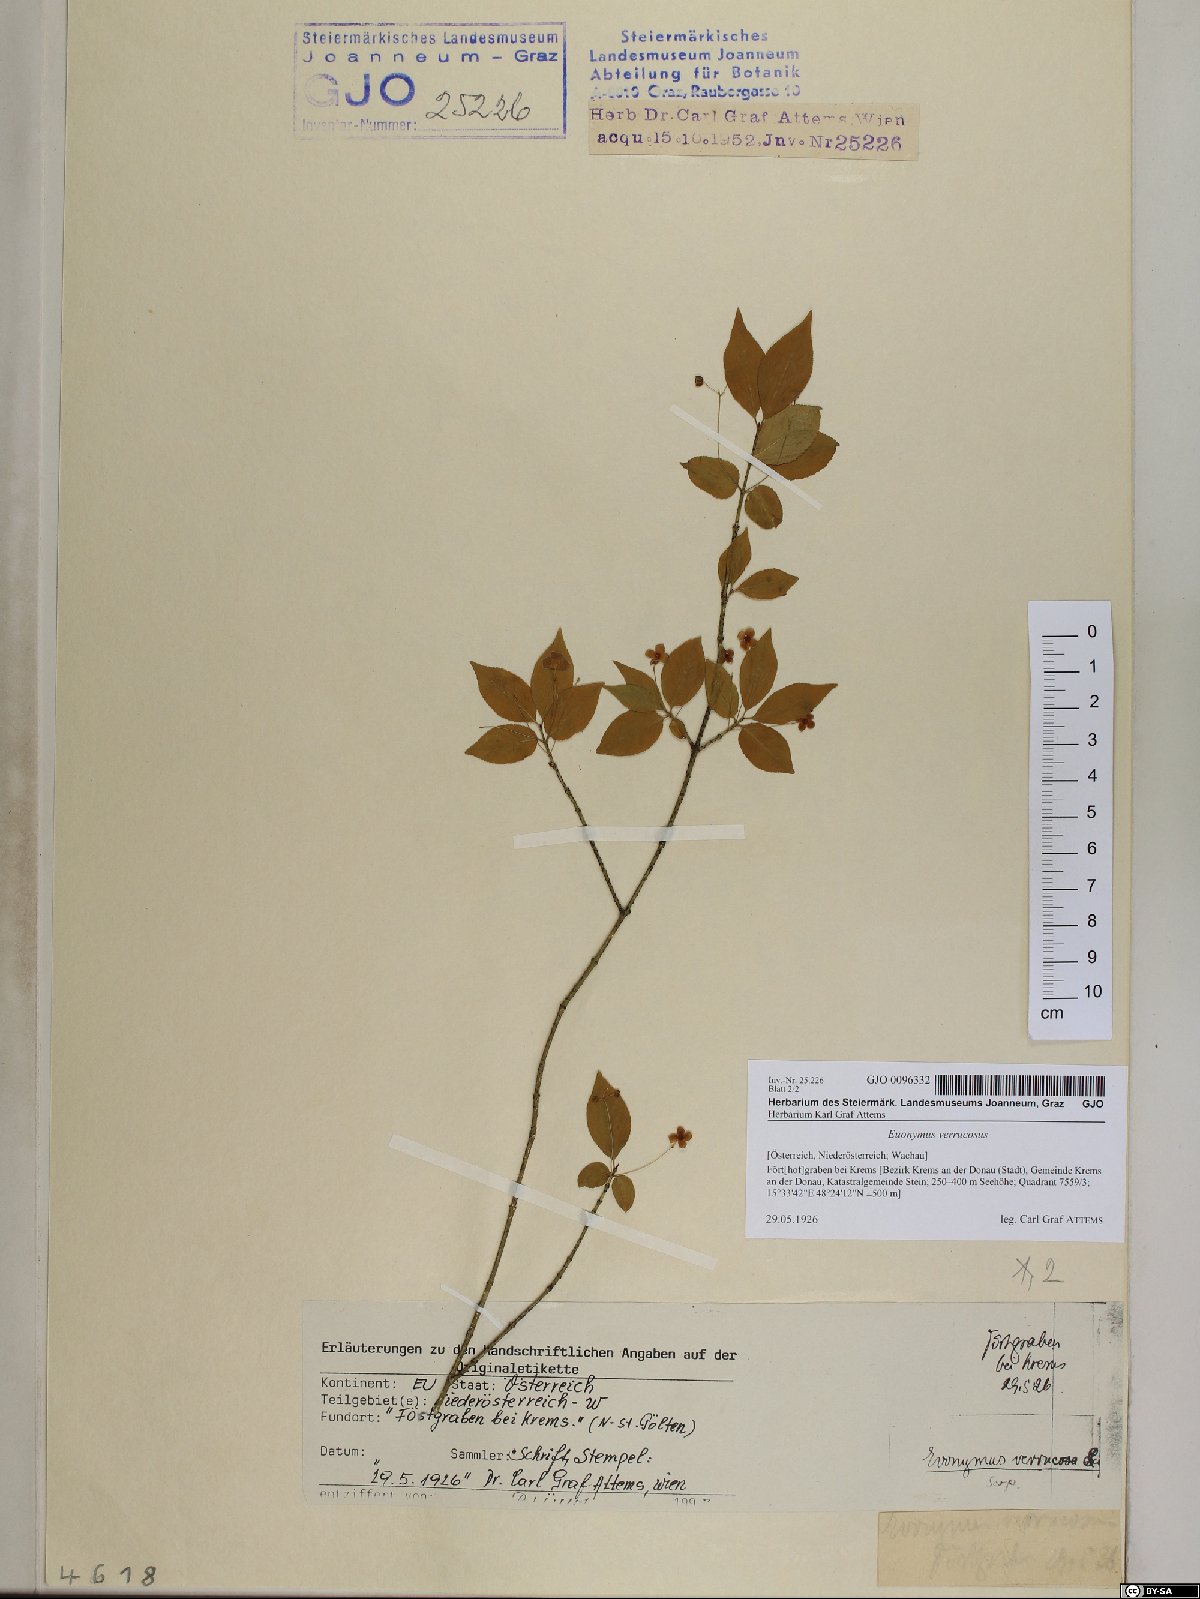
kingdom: Plantae
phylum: Tracheophyta
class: Magnoliopsida
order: Celastrales
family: Celastraceae
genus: Euonymus
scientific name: Euonymus verrucosus
